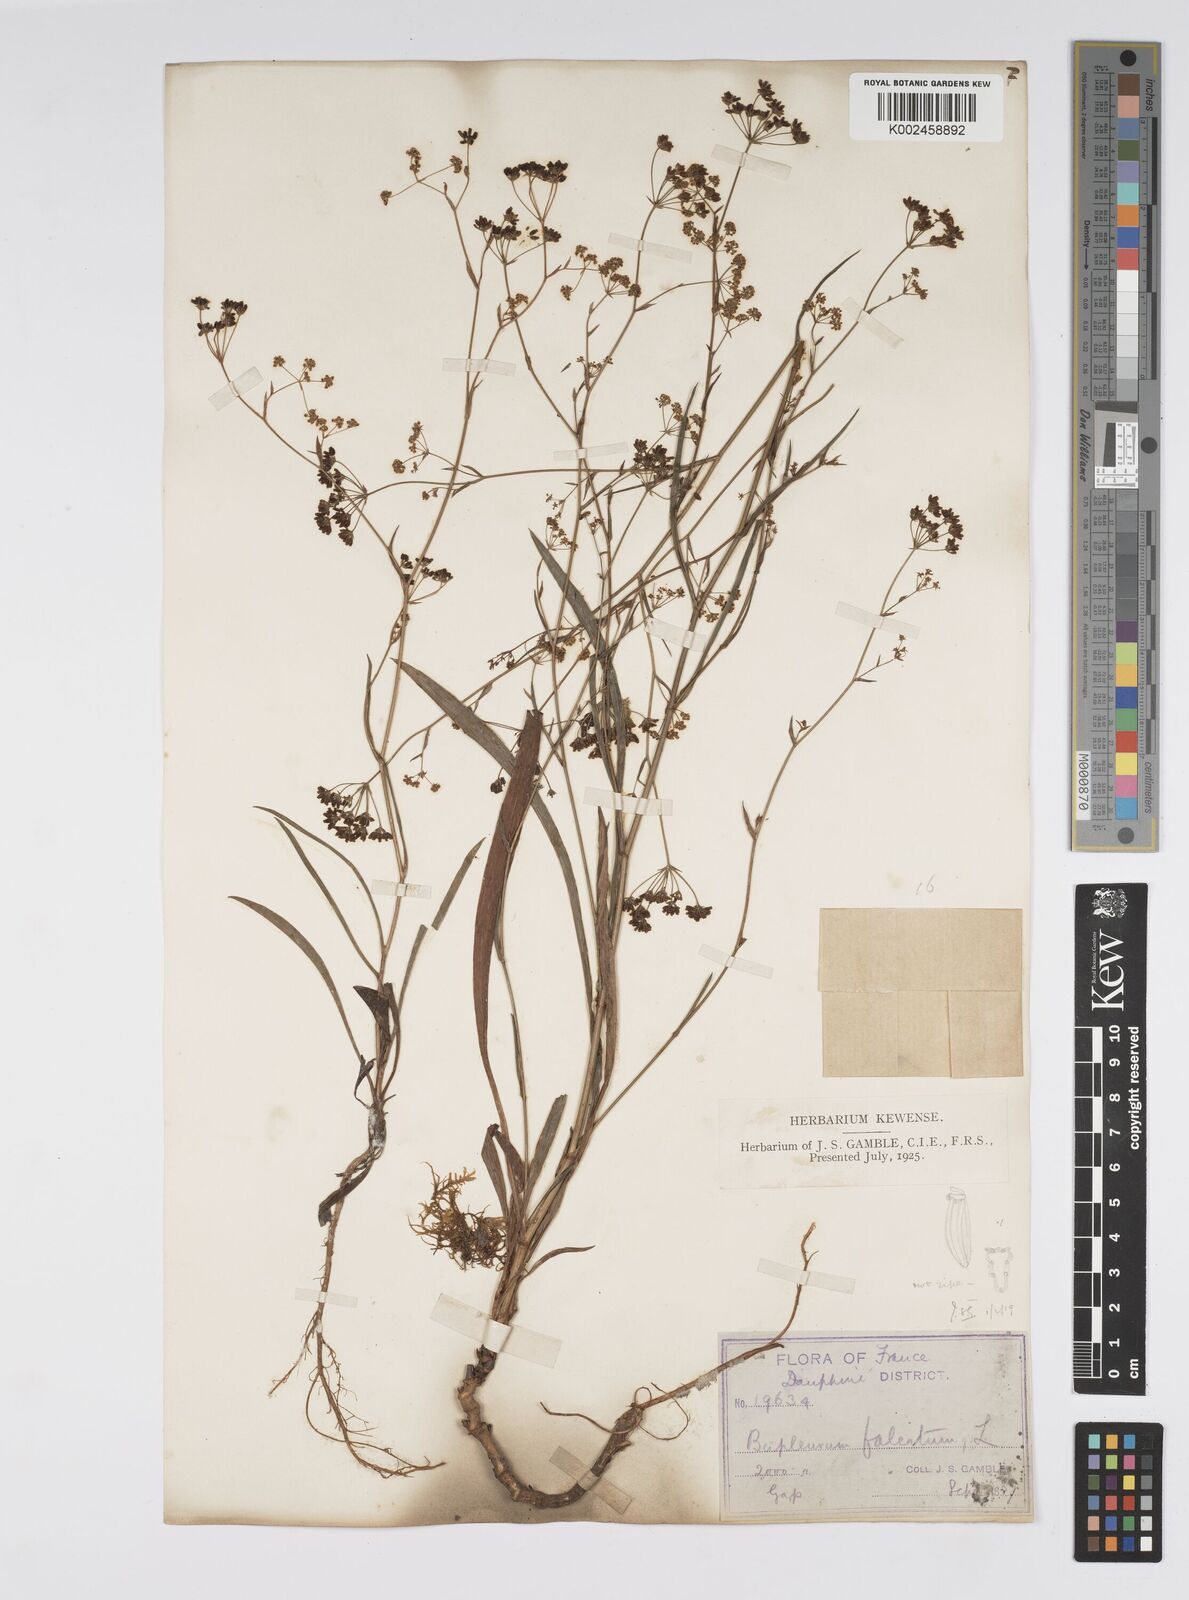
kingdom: Plantae
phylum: Tracheophyta
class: Magnoliopsida
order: Apiales
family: Apiaceae
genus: Bupleurum
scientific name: Bupleurum falcatum
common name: Sickle-leaved hare's-ear
